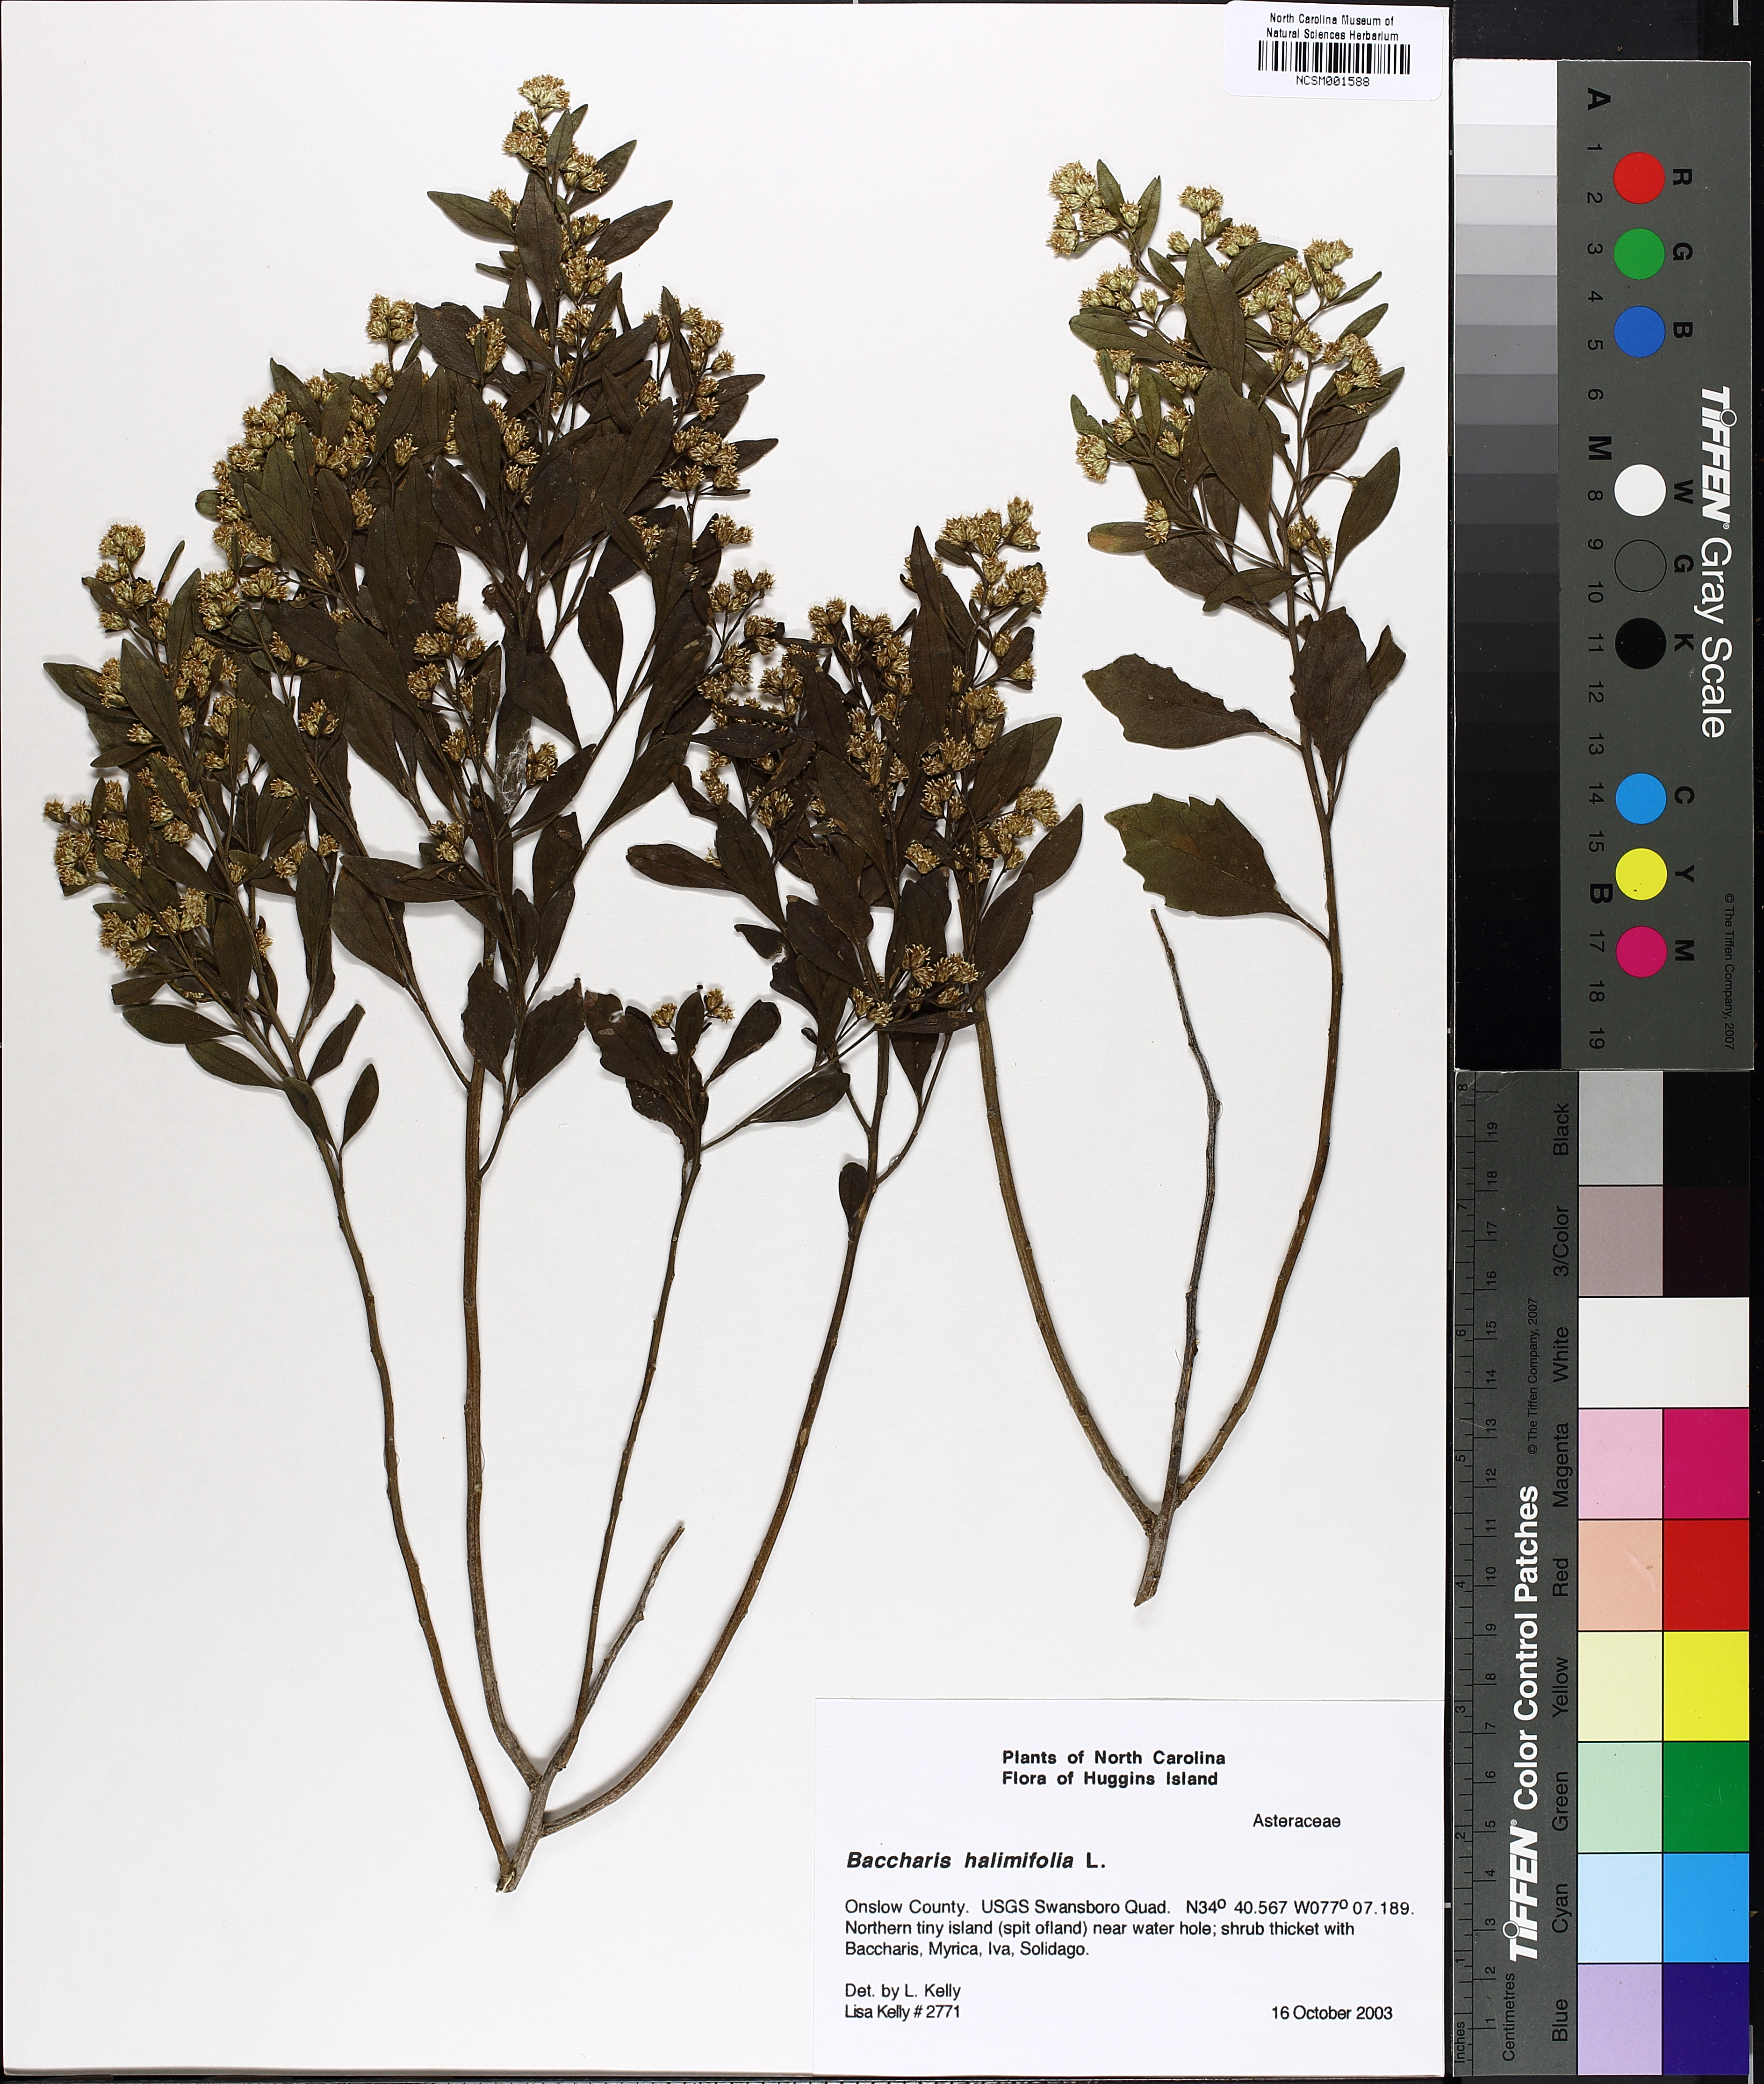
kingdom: Plantae
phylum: Tracheophyta
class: Magnoliopsida
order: Asterales
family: Asteraceae
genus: Nidorella
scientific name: Nidorella ivifolia
